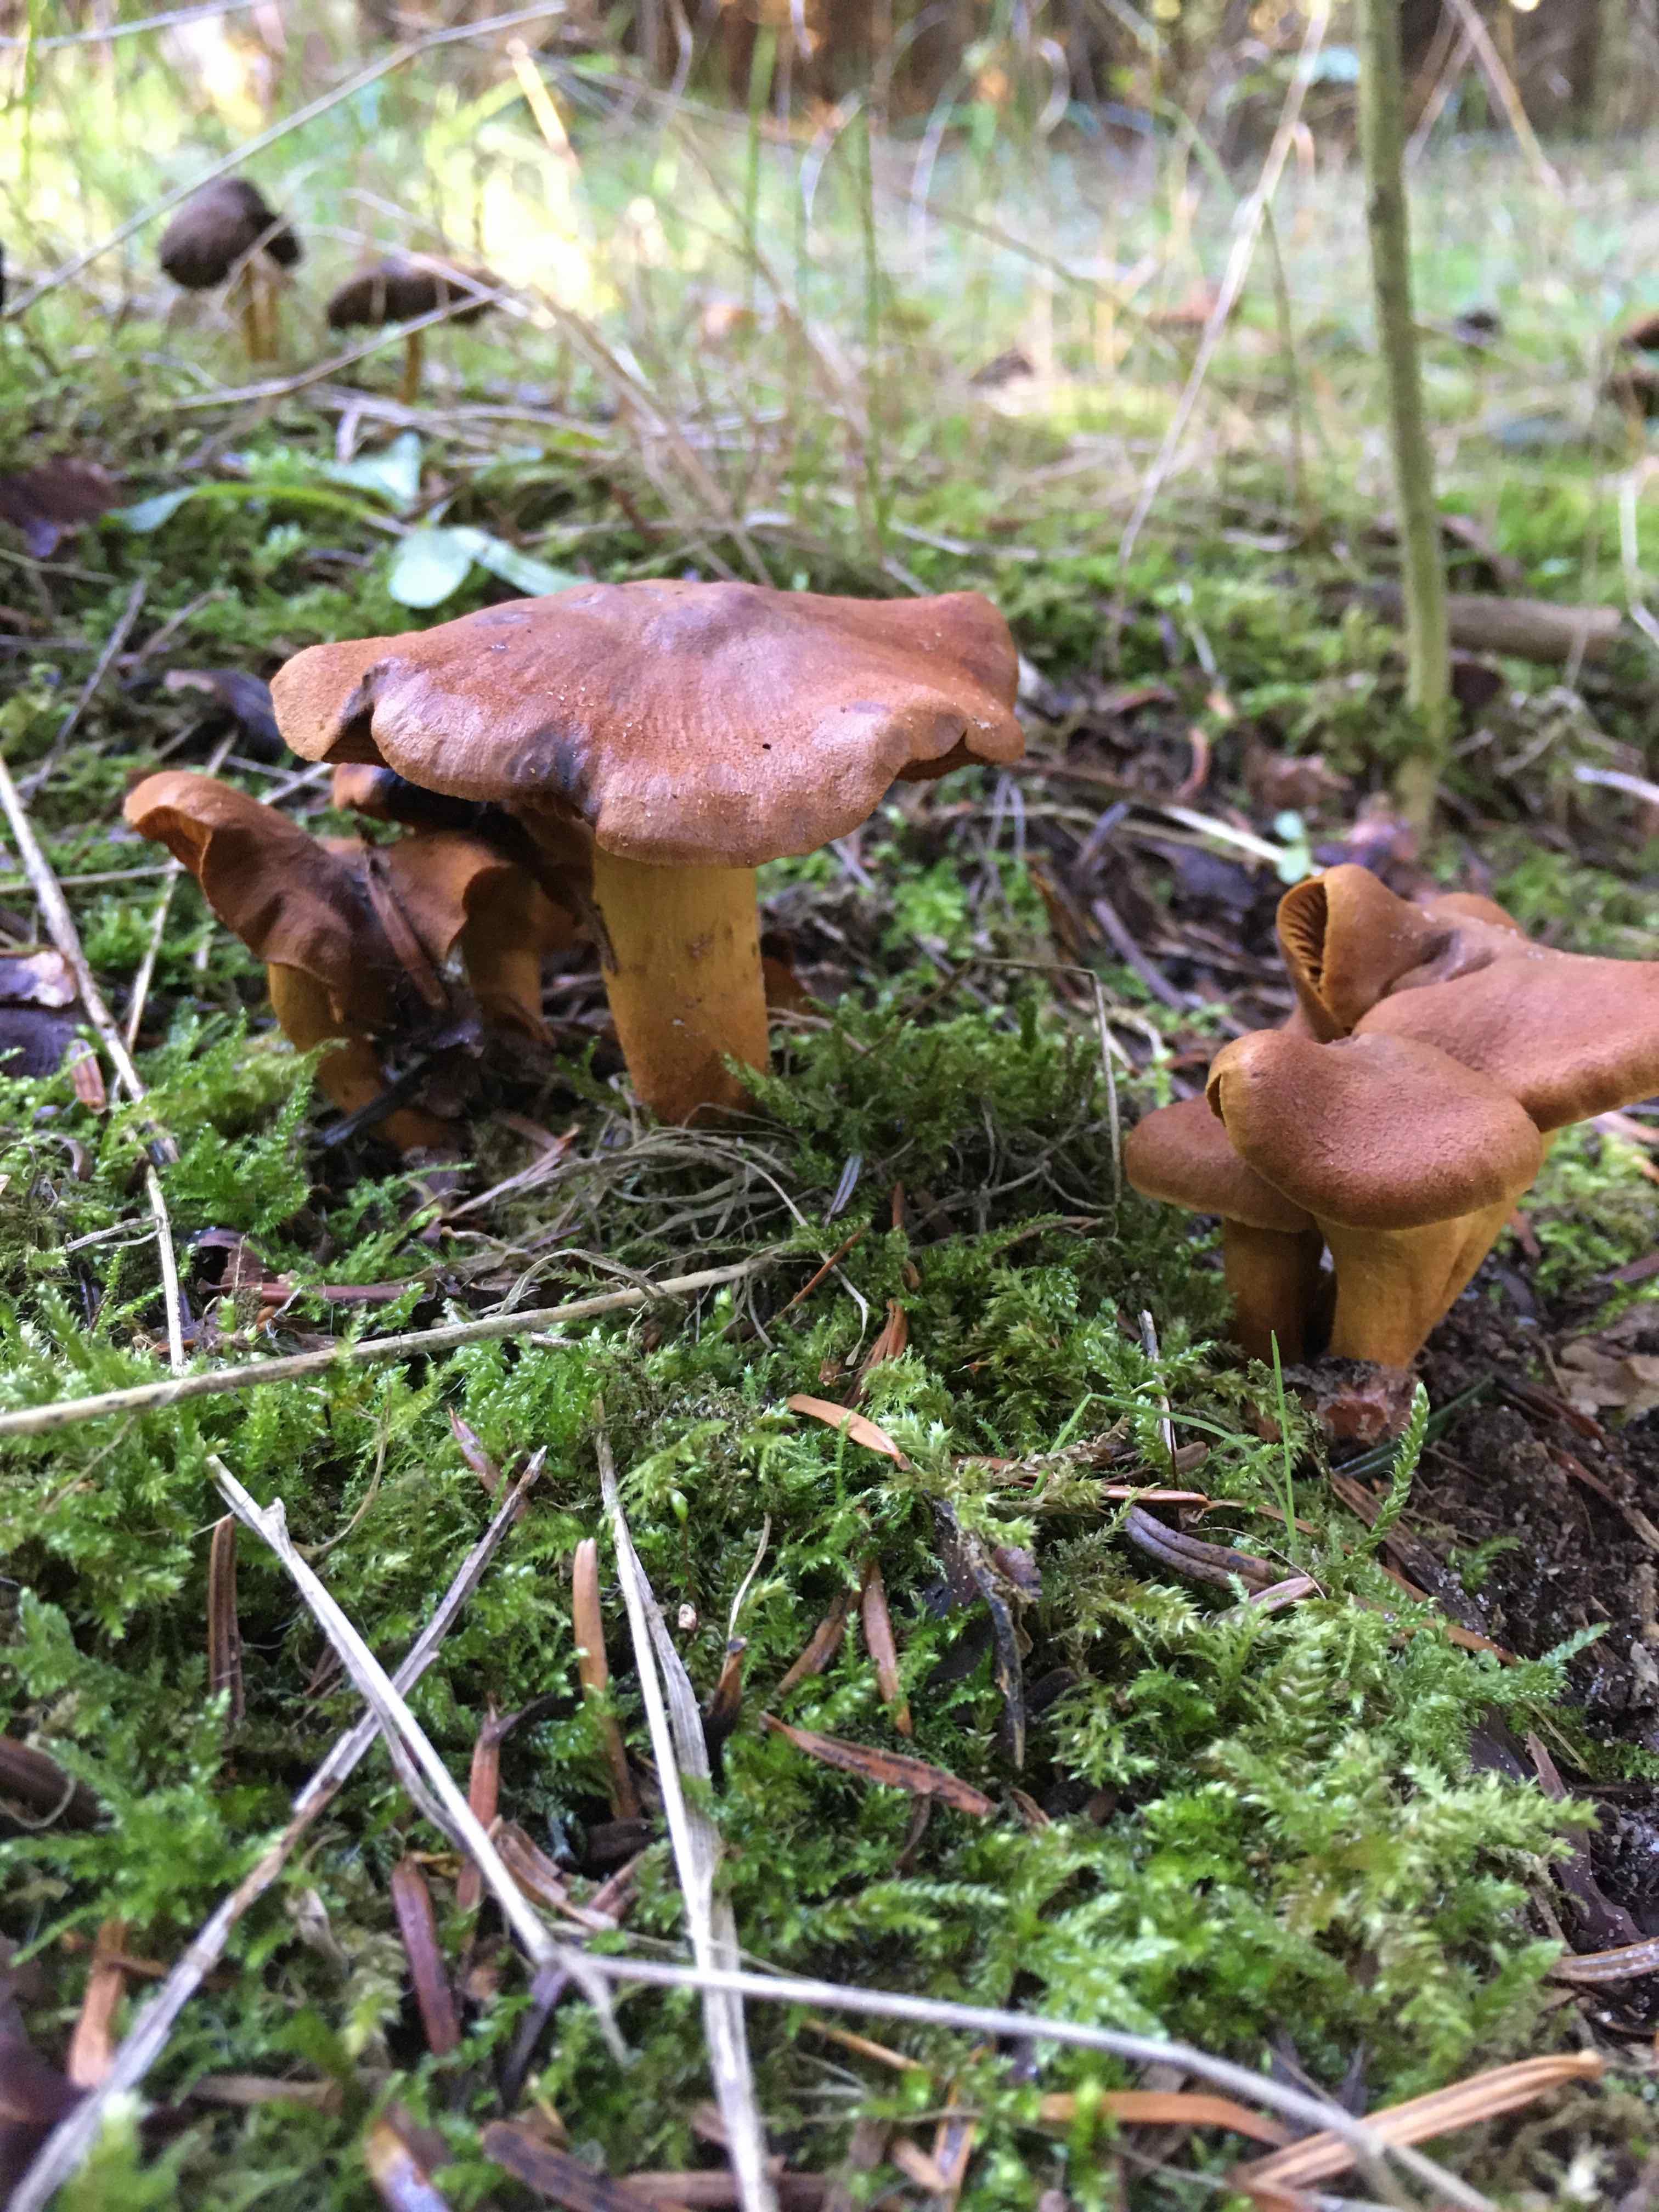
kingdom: Fungi
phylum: Basidiomycota
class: Agaricomycetes
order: Agaricales
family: Cortinariaceae
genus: Cortinarius
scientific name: Cortinarius
